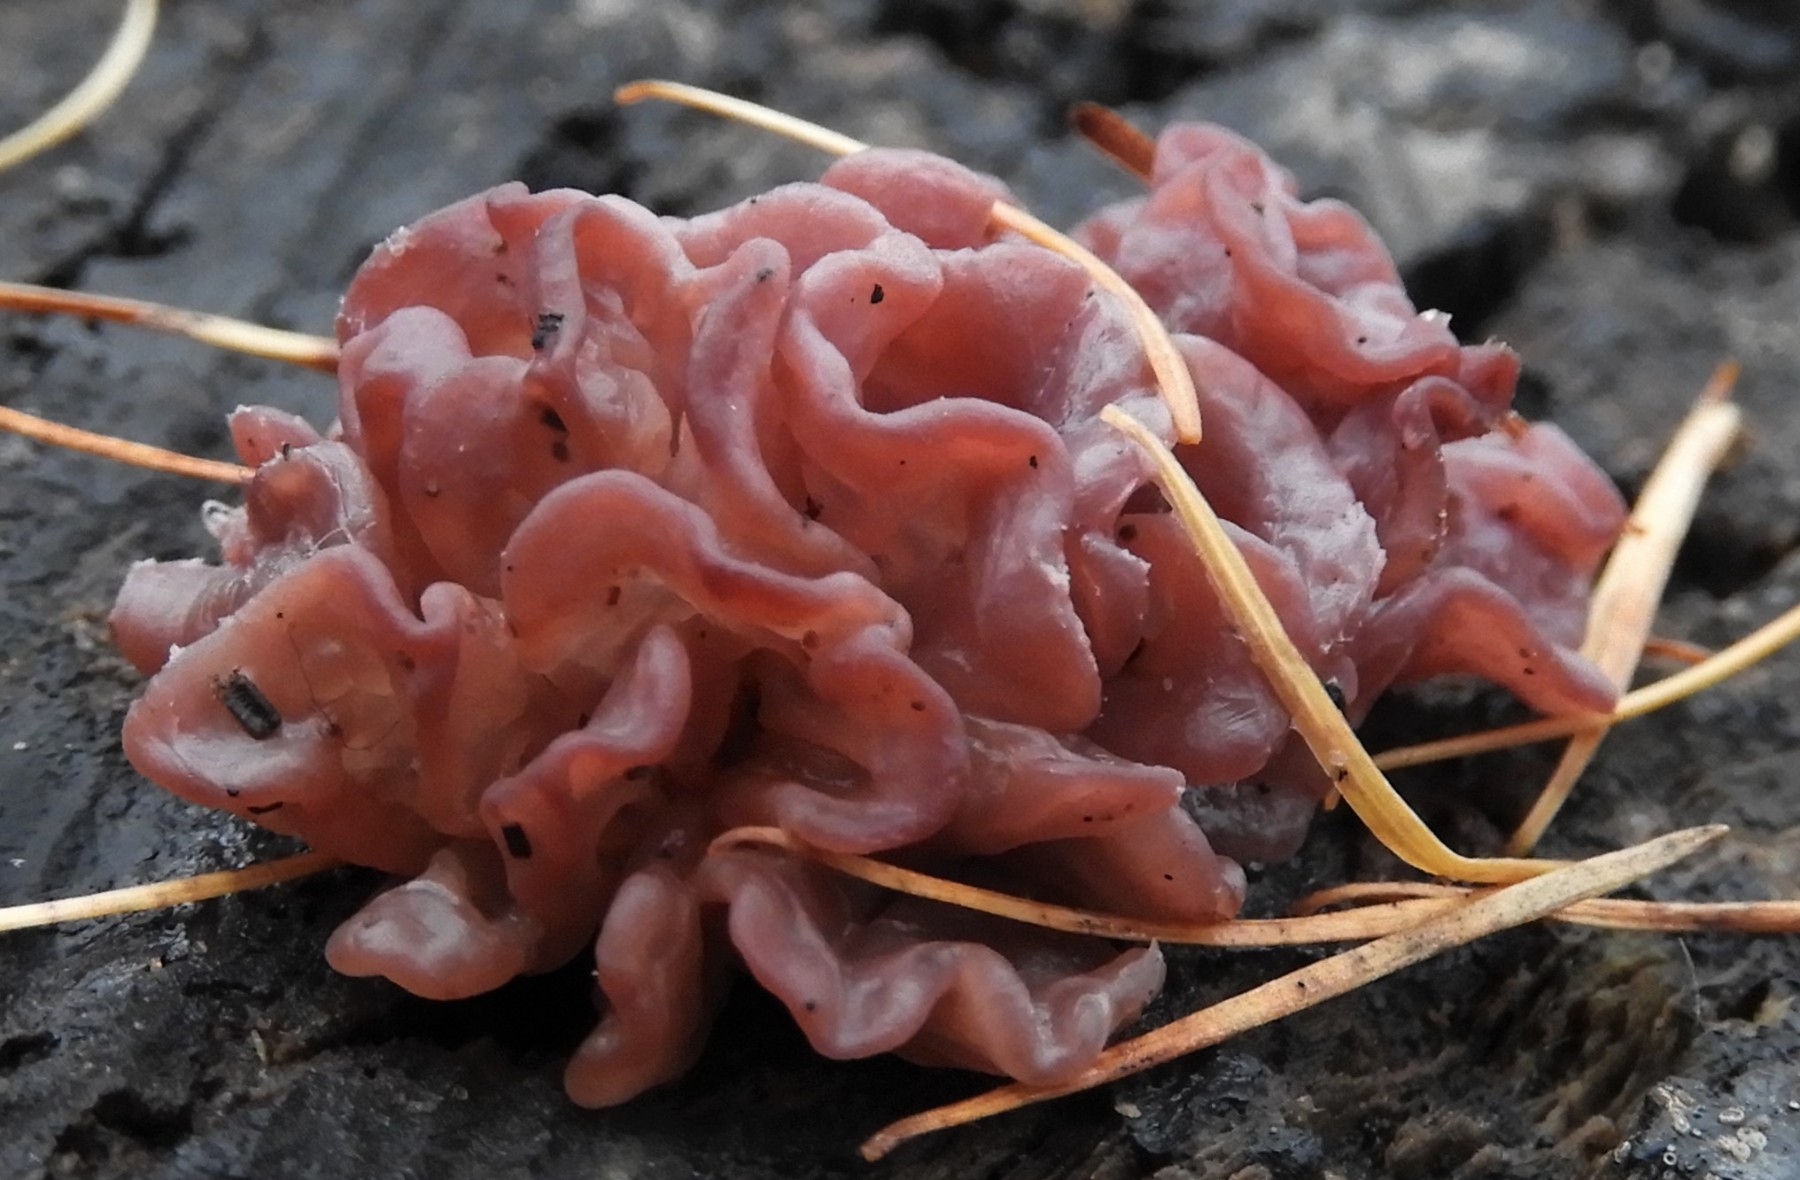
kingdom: Fungi
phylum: Ascomycota
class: Leotiomycetes
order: Helotiales
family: Gelatinodiscaceae
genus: Ascocoryne
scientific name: Ascocoryne sarcoides
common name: rødlilla sejskive
